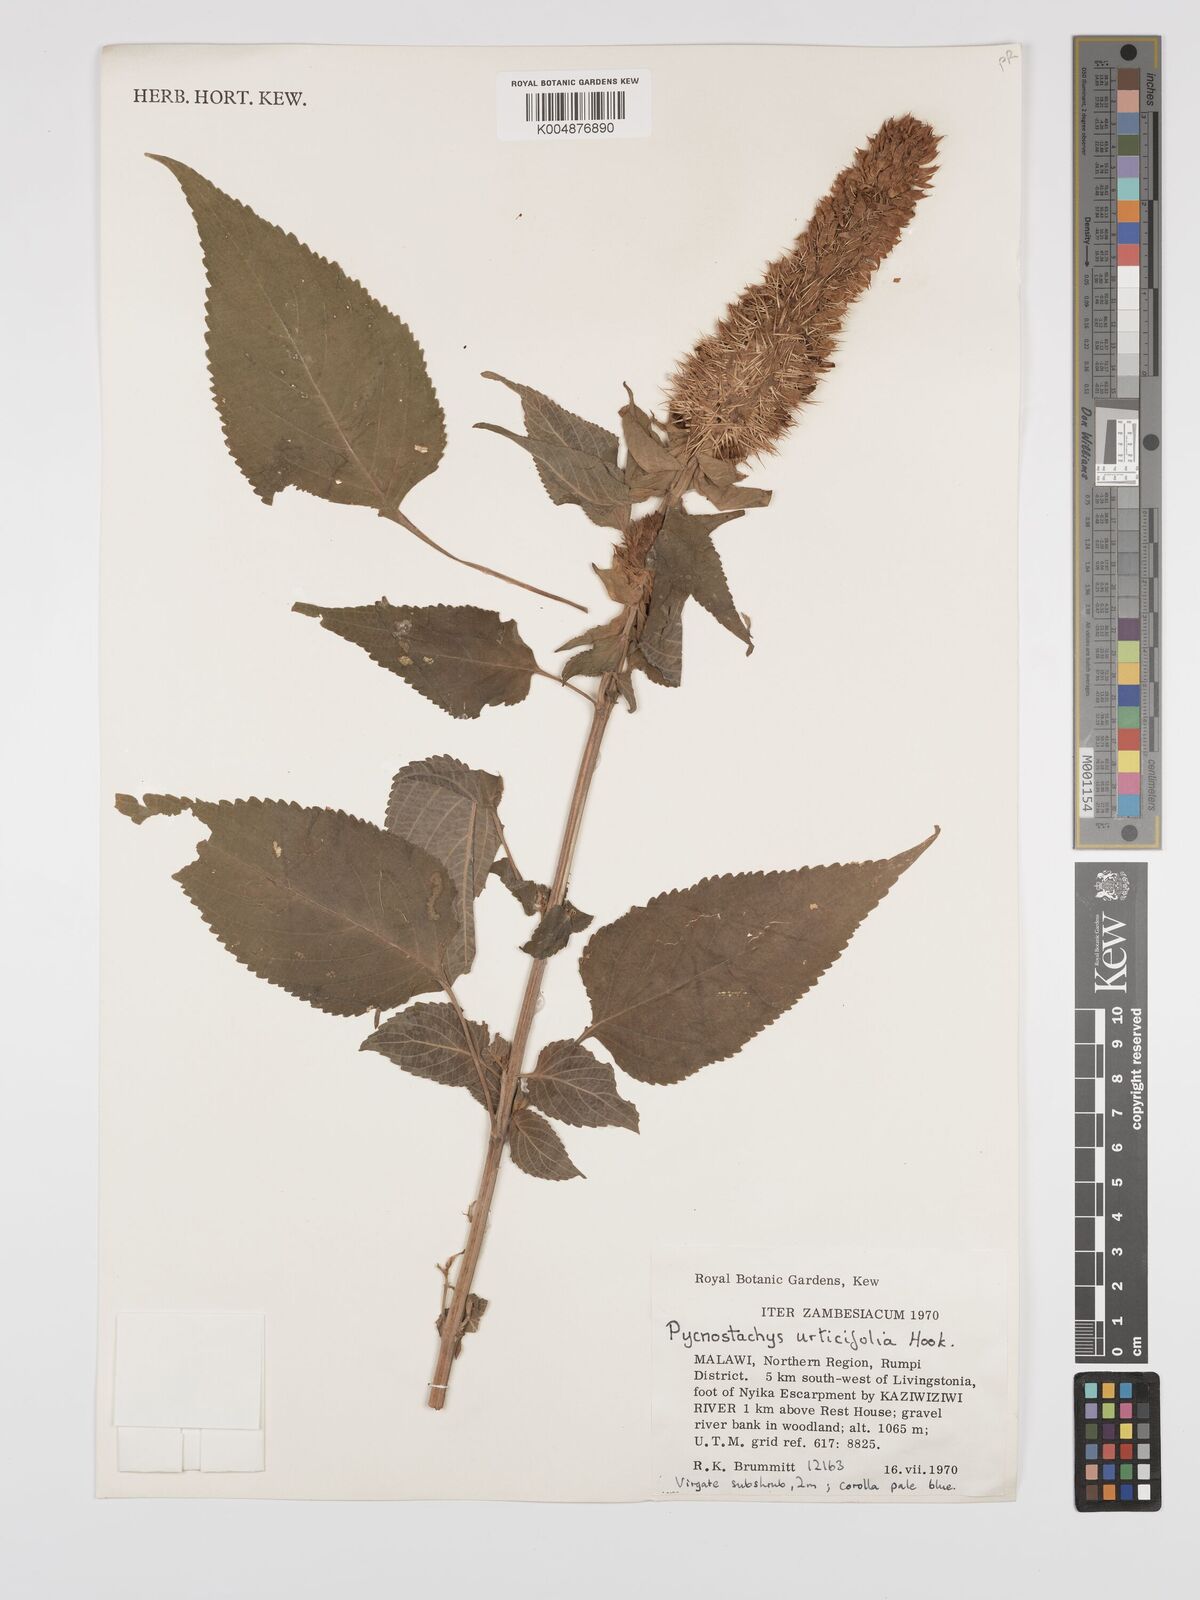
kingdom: Plantae
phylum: Tracheophyta
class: Magnoliopsida
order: Lamiales
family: Lamiaceae
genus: Coleus
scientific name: Coleus livingstonei
